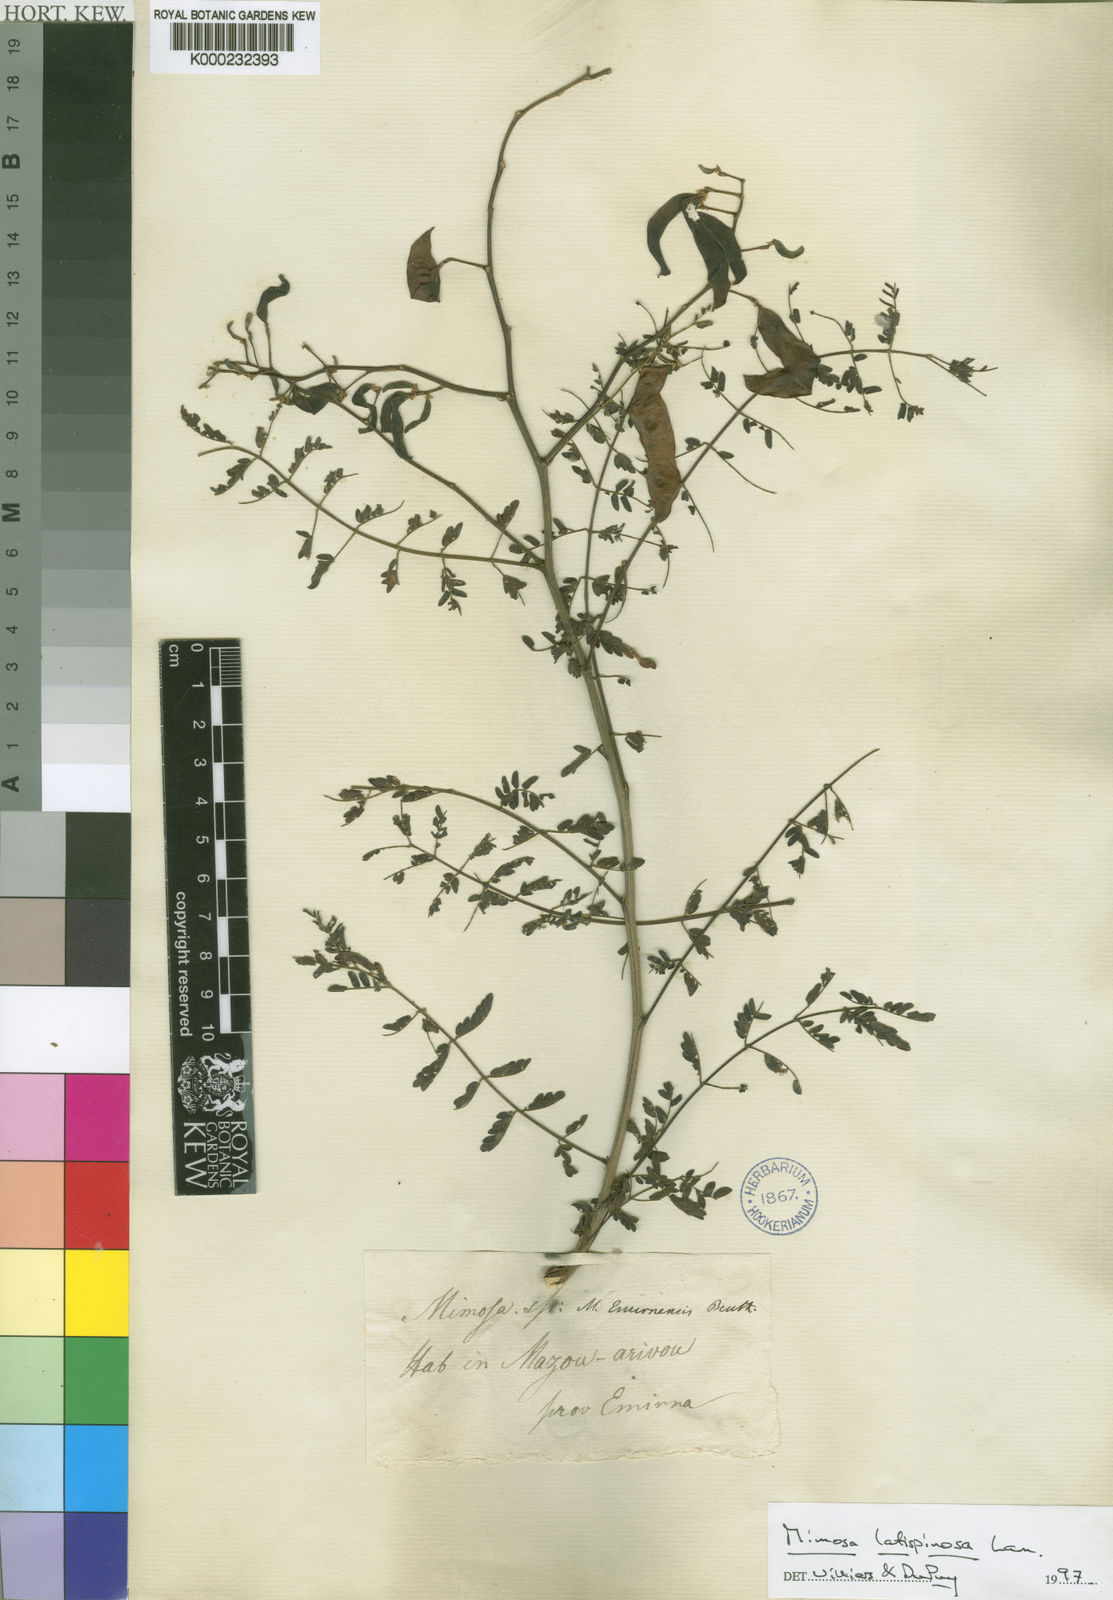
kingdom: Plantae
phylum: Tracheophyta
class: Magnoliopsida
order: Fabales
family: Fabaceae
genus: Mimosa
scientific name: Mimosa latispinosa
